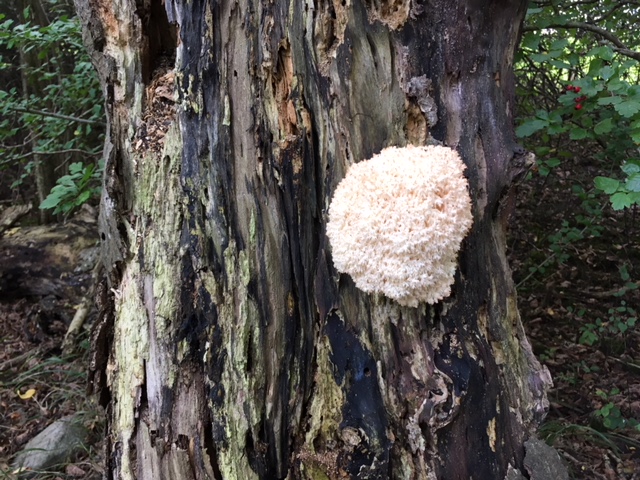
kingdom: Fungi
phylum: Basidiomycota
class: Agaricomycetes
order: Russulales
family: Hericiaceae
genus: Hericium
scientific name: Hericium coralloides
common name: koralpigsvamp
